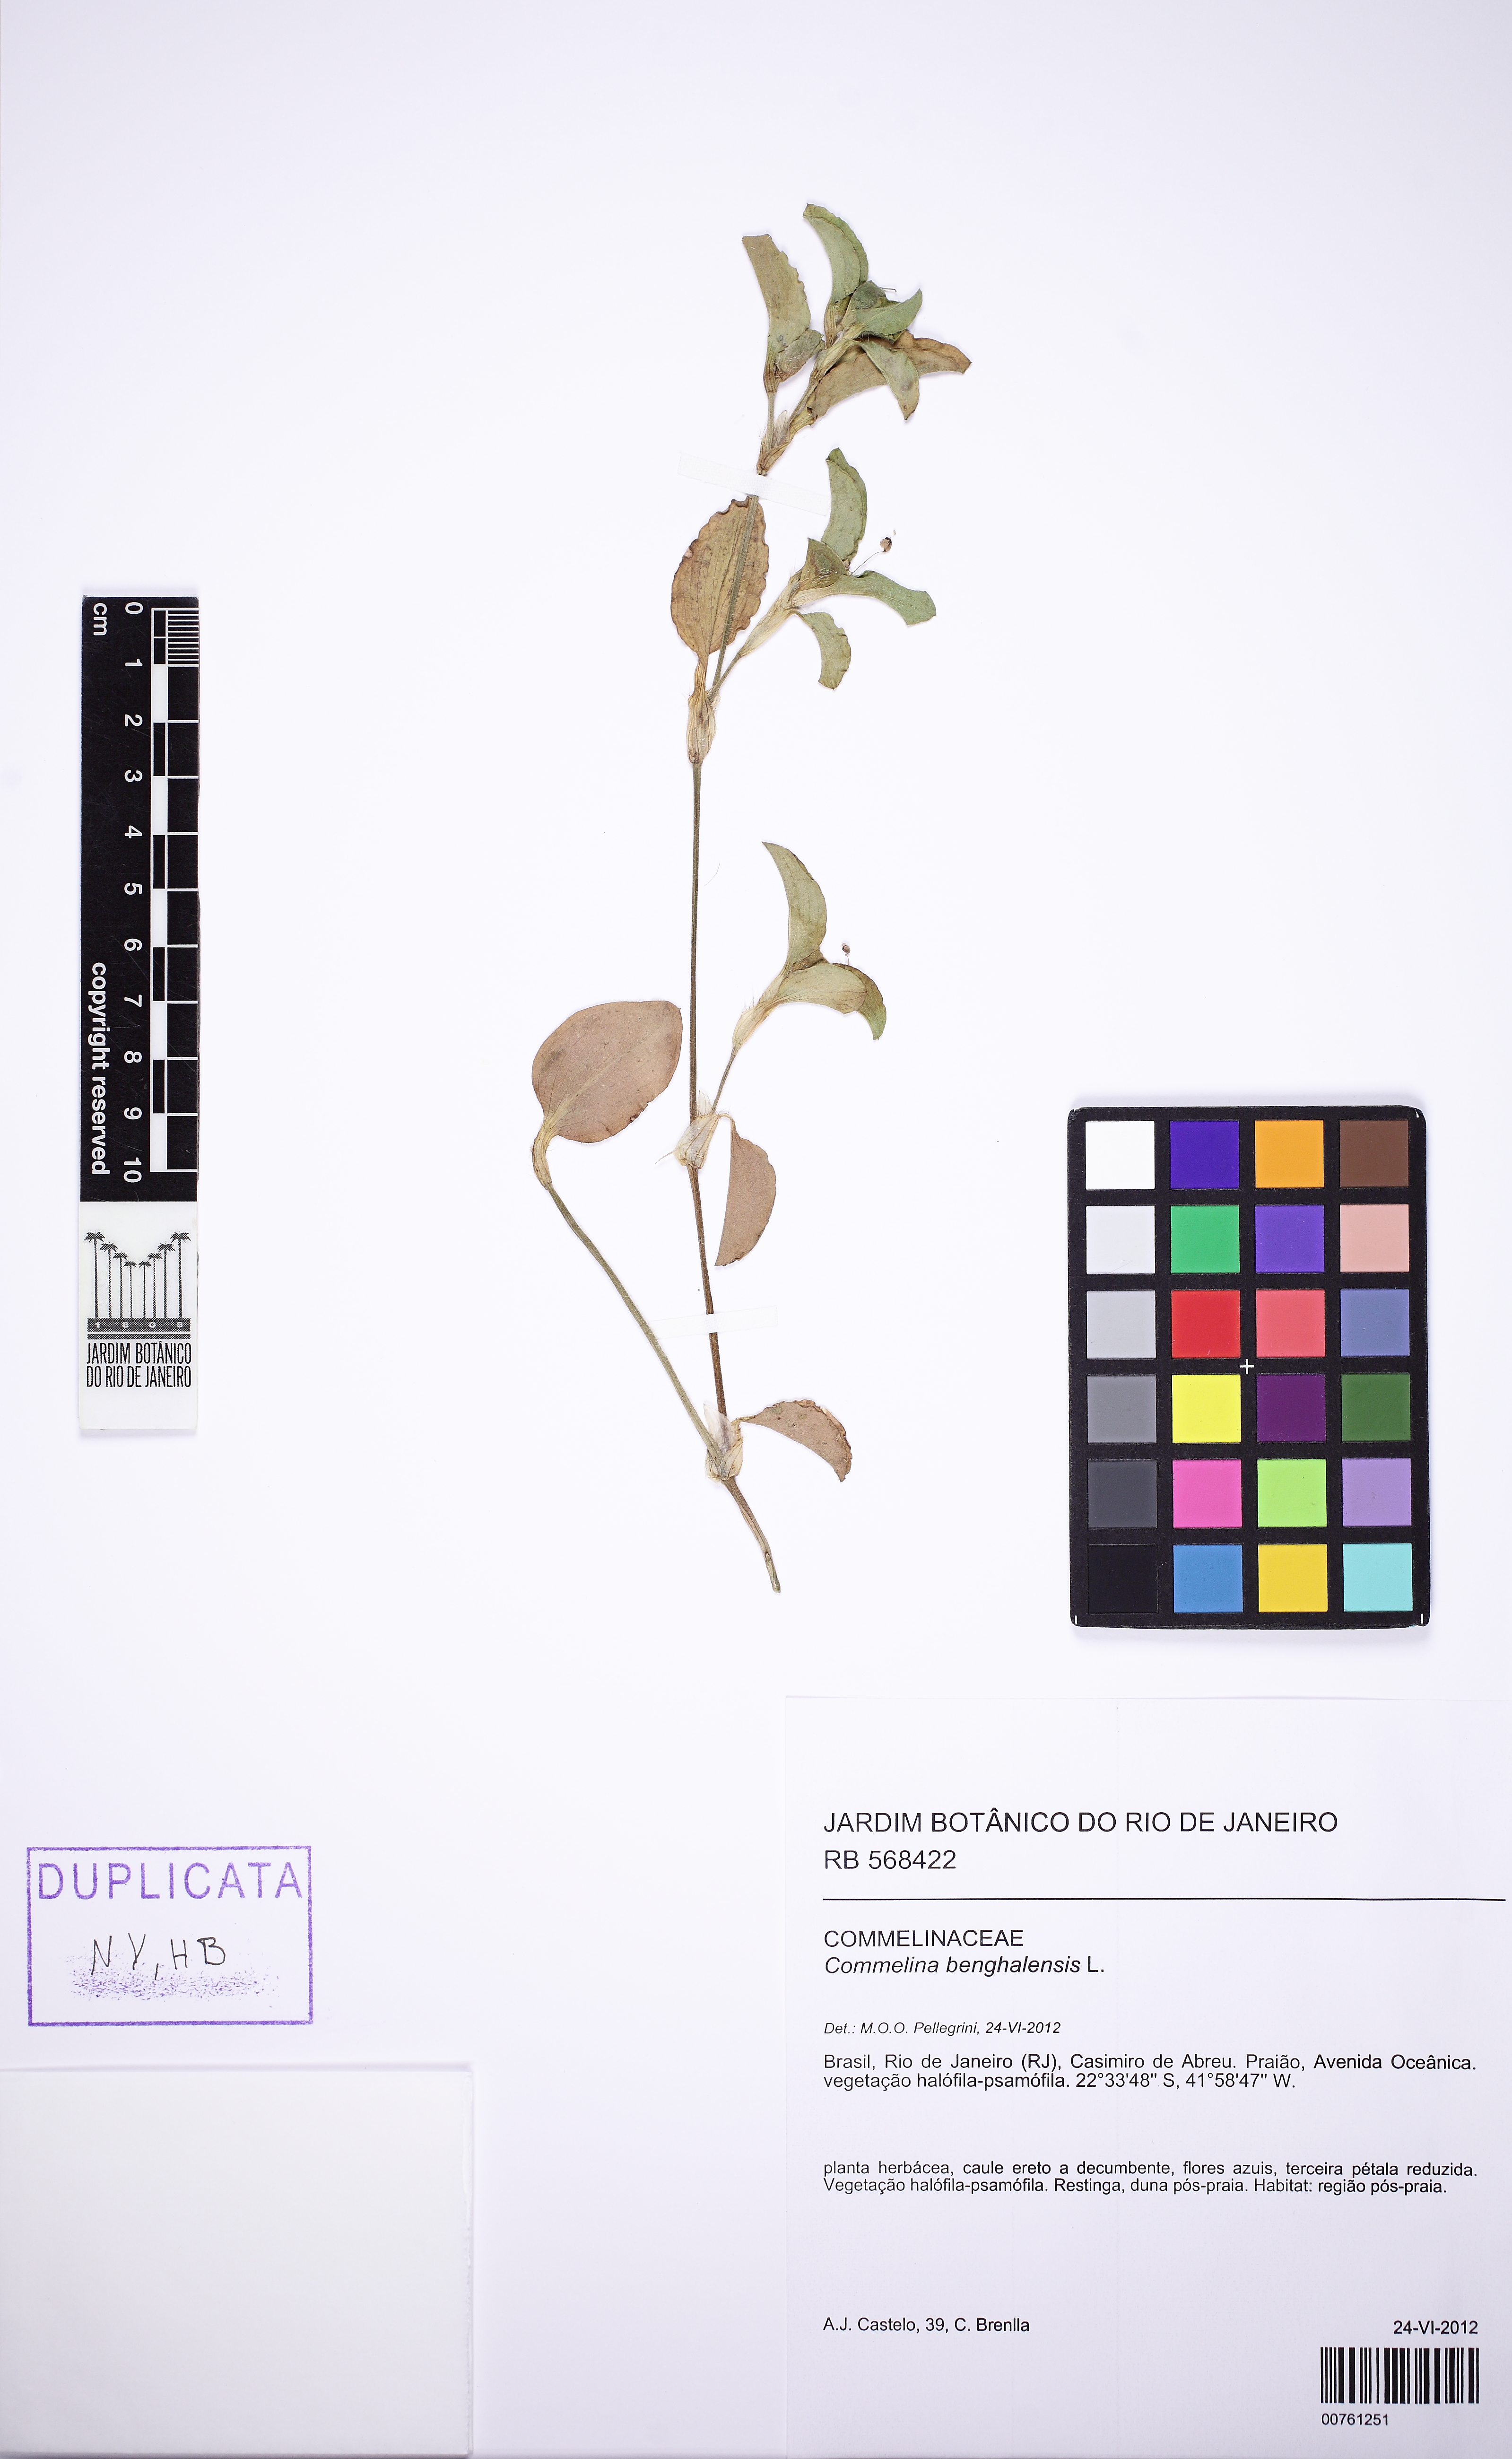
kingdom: Plantae
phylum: Tracheophyta
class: Liliopsida
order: Commelinales
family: Commelinaceae
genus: Commelina
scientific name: Commelina benghalensis
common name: Jio
